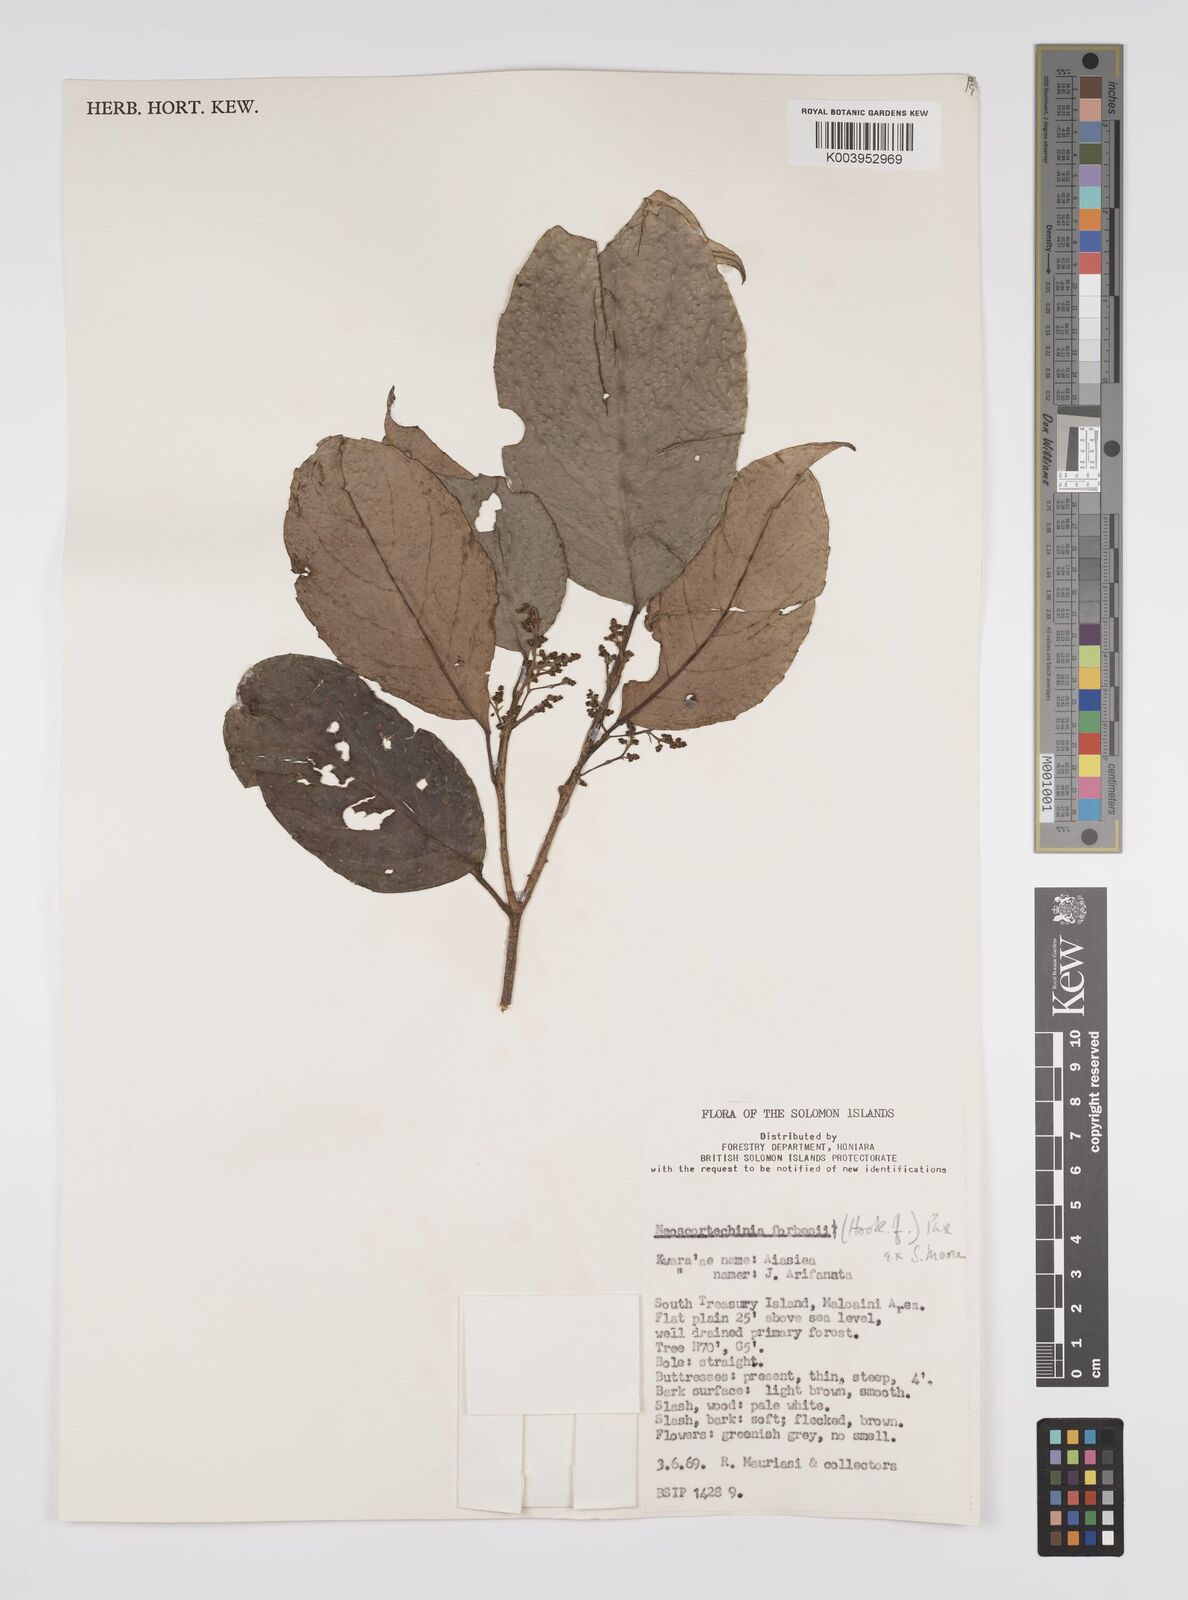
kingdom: Plantae
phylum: Tracheophyta
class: Magnoliopsida
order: Malpighiales
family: Euphorbiaceae
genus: Neoscortechinia
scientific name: Neoscortechinia forbesii
